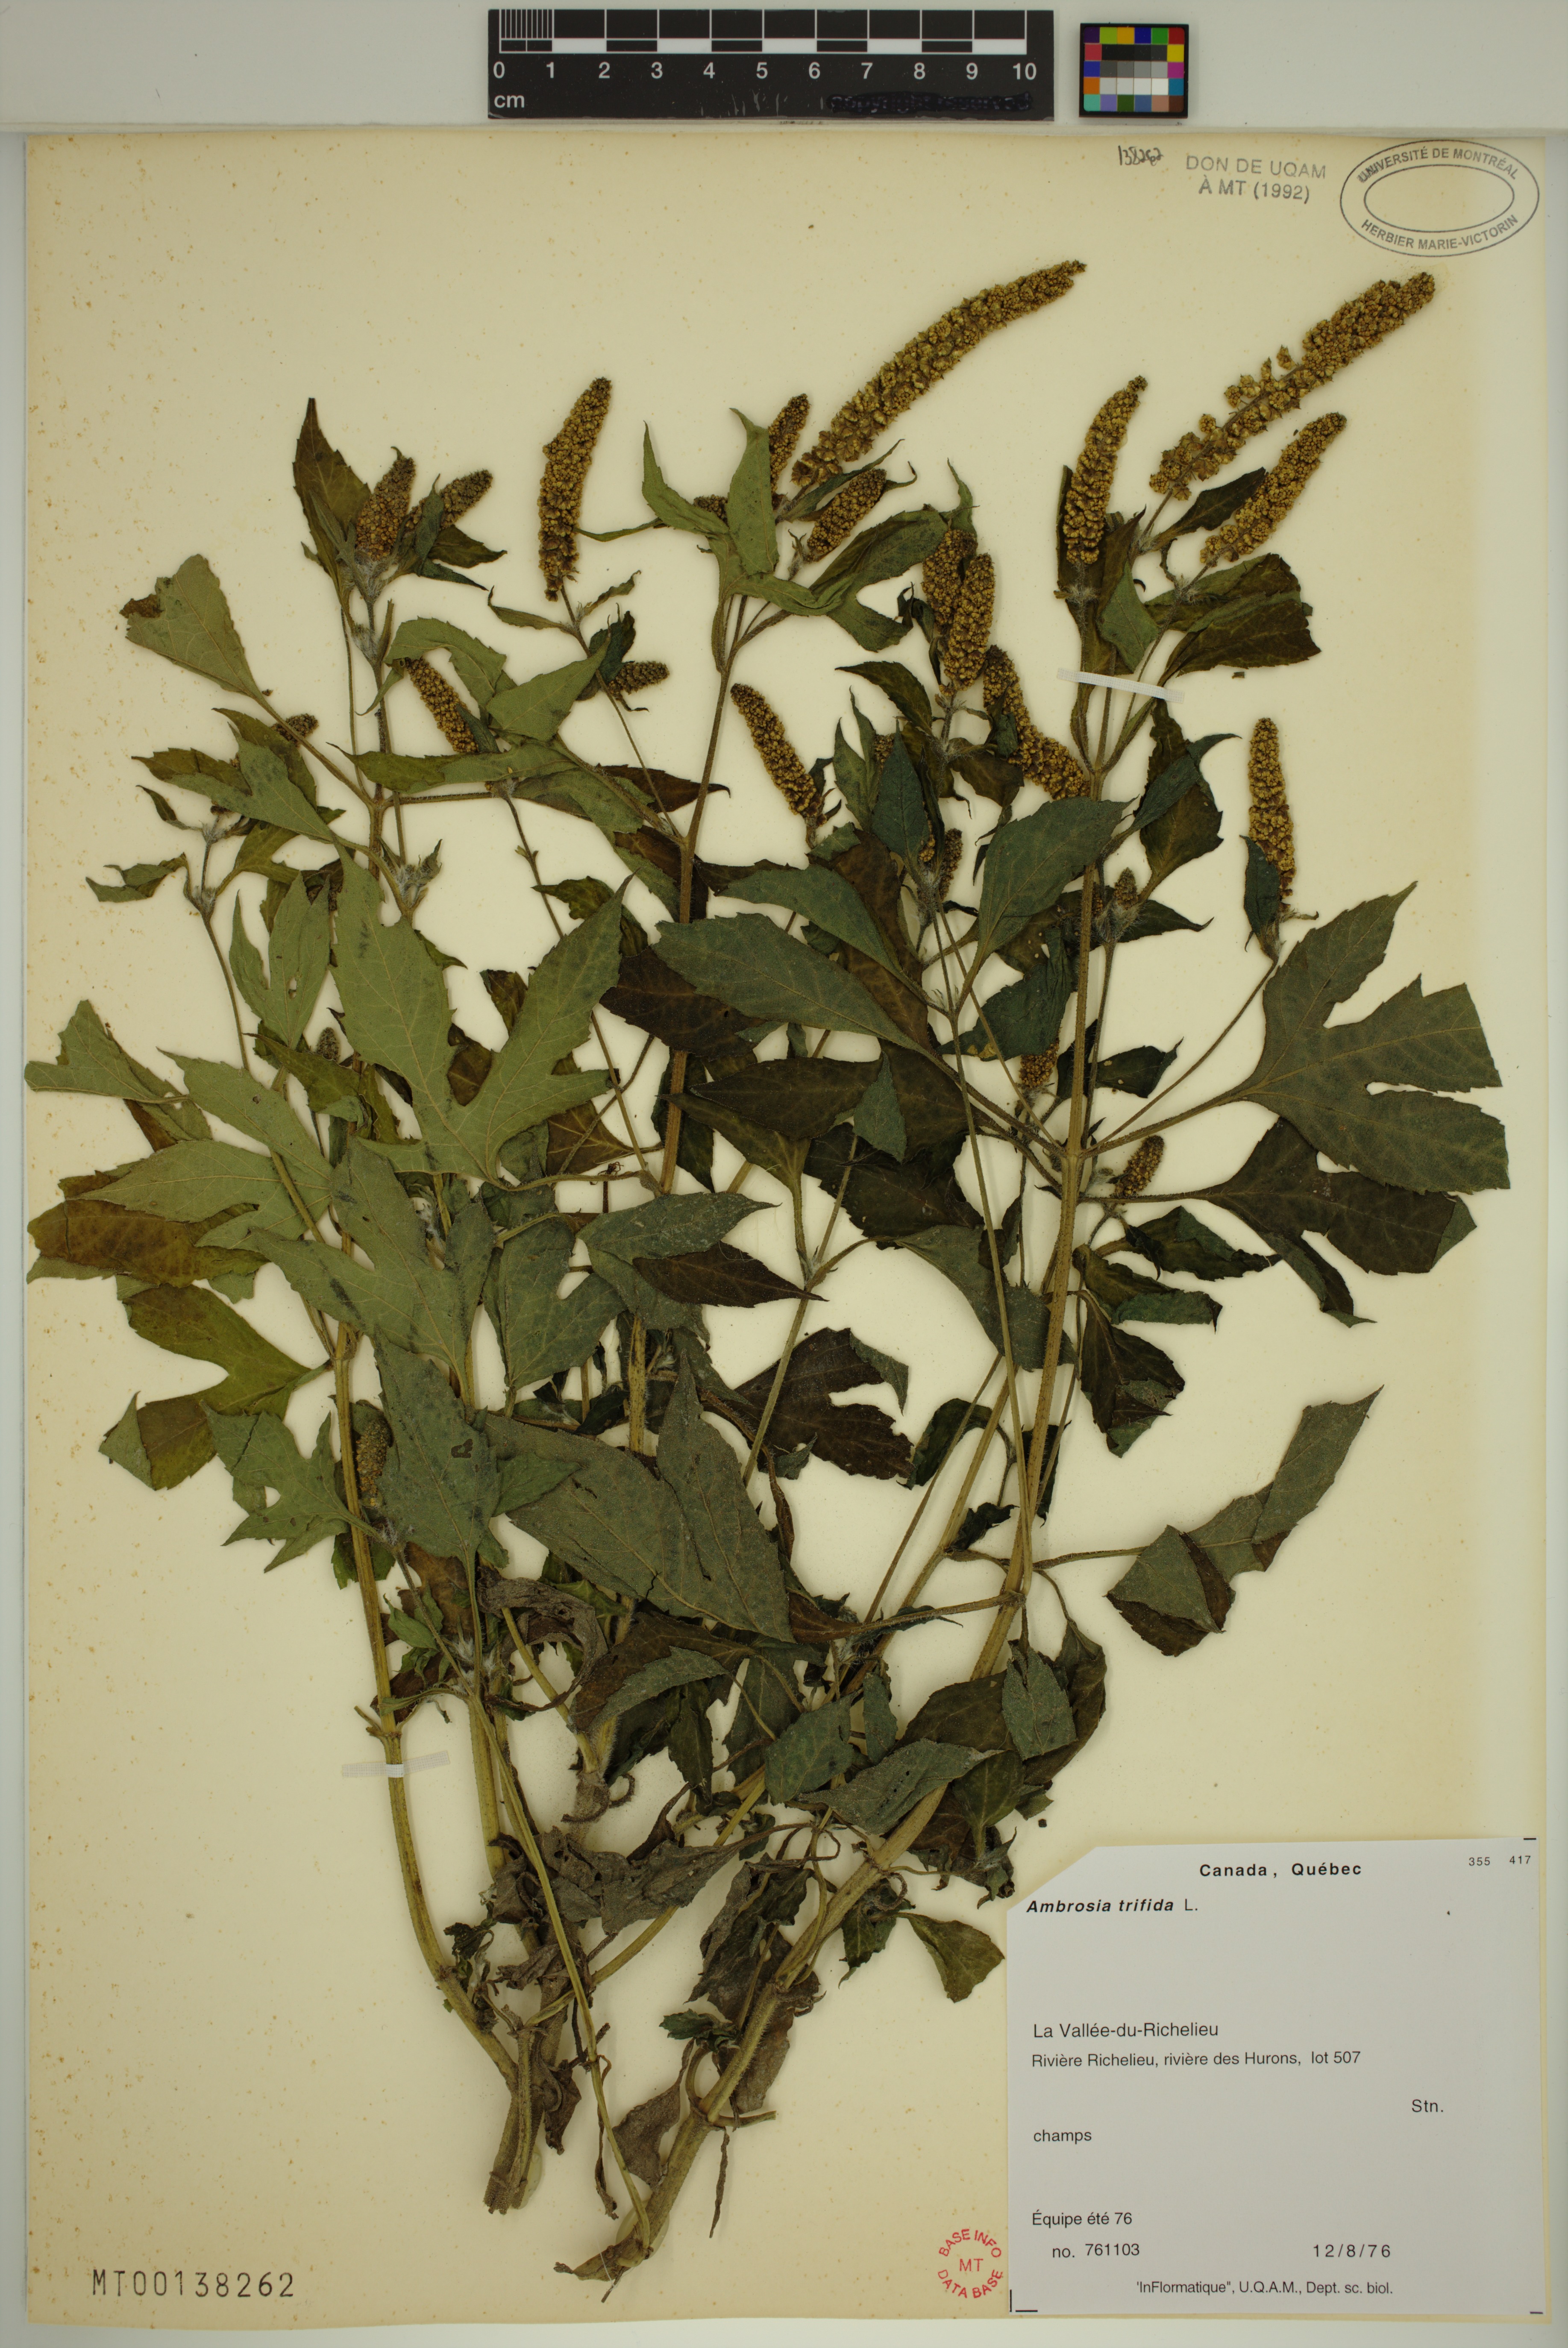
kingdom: Plantae
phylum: Tracheophyta
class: Magnoliopsida
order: Asterales
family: Asteraceae
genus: Ambrosia
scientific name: Ambrosia trifida
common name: Giant ragweed
